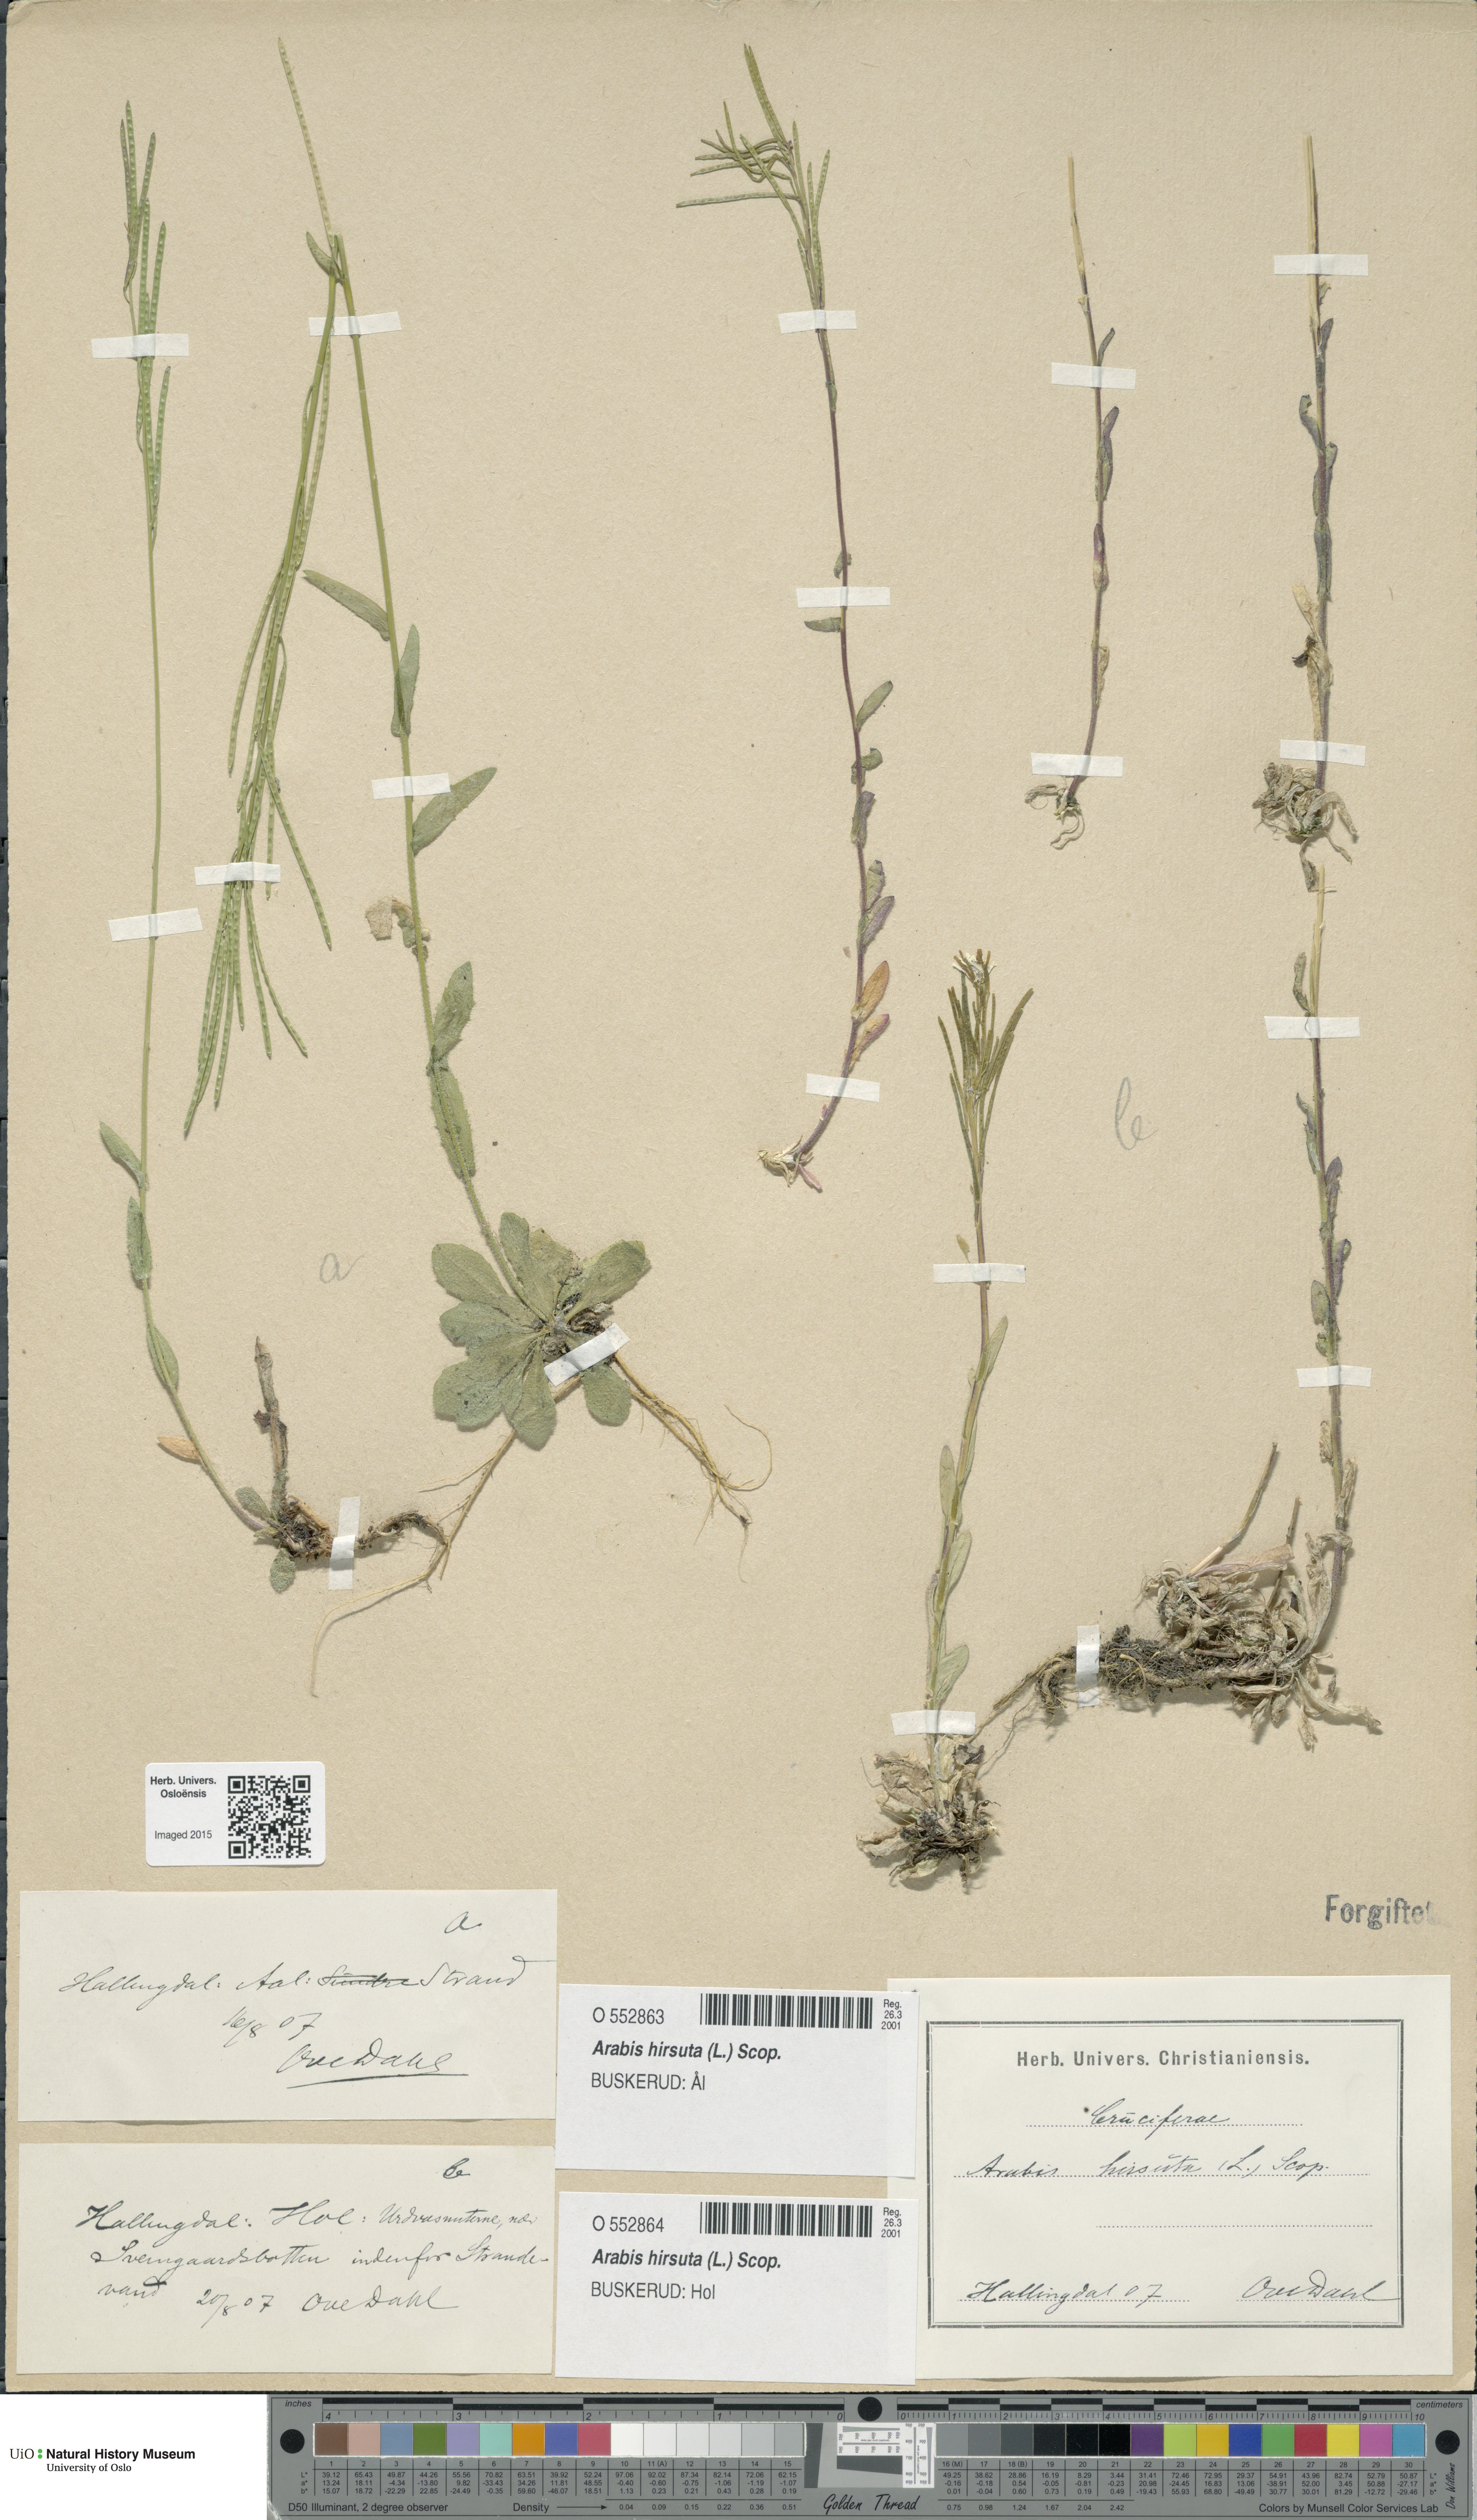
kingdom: Plantae
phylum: Tracheophyta
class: Magnoliopsida
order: Brassicales
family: Brassicaceae
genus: Arabis
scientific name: Arabis hirsuta
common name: Hairy rock-cress
